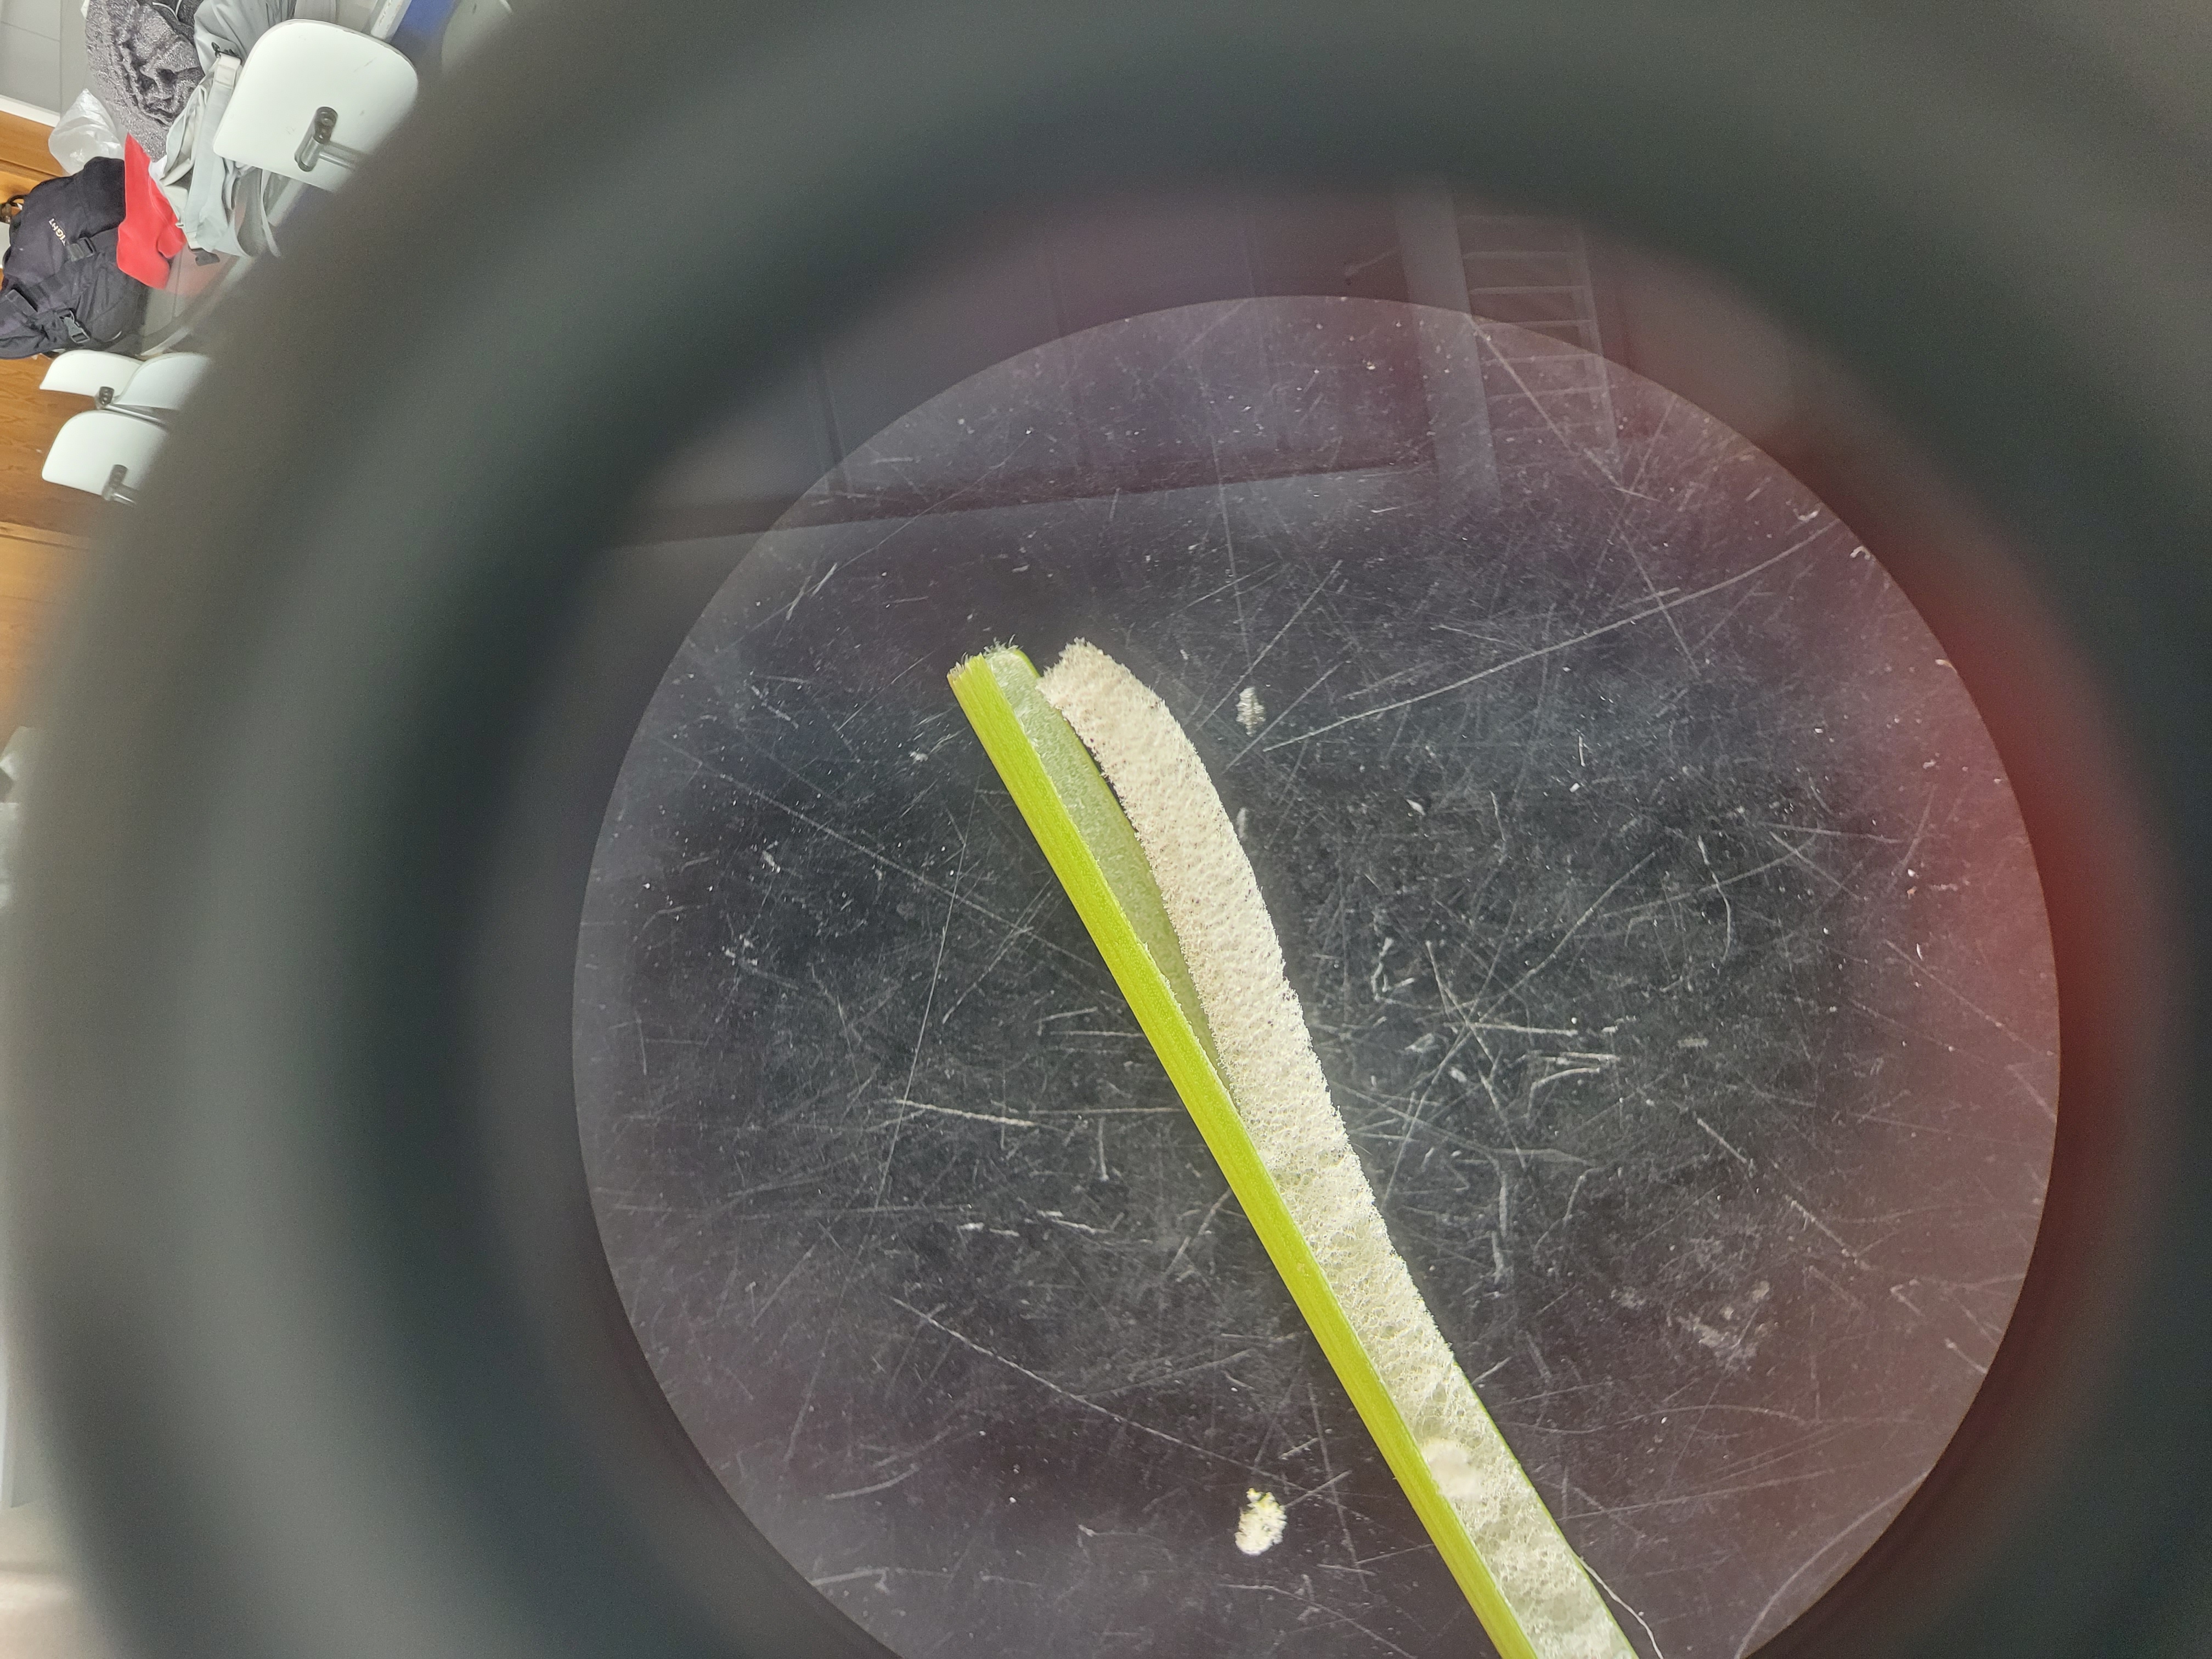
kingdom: Plantae
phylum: Tracheophyta
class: Liliopsida
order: Poales
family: Juncaceae
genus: Juncus
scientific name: Juncus conglomeratus
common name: Knop-siv
